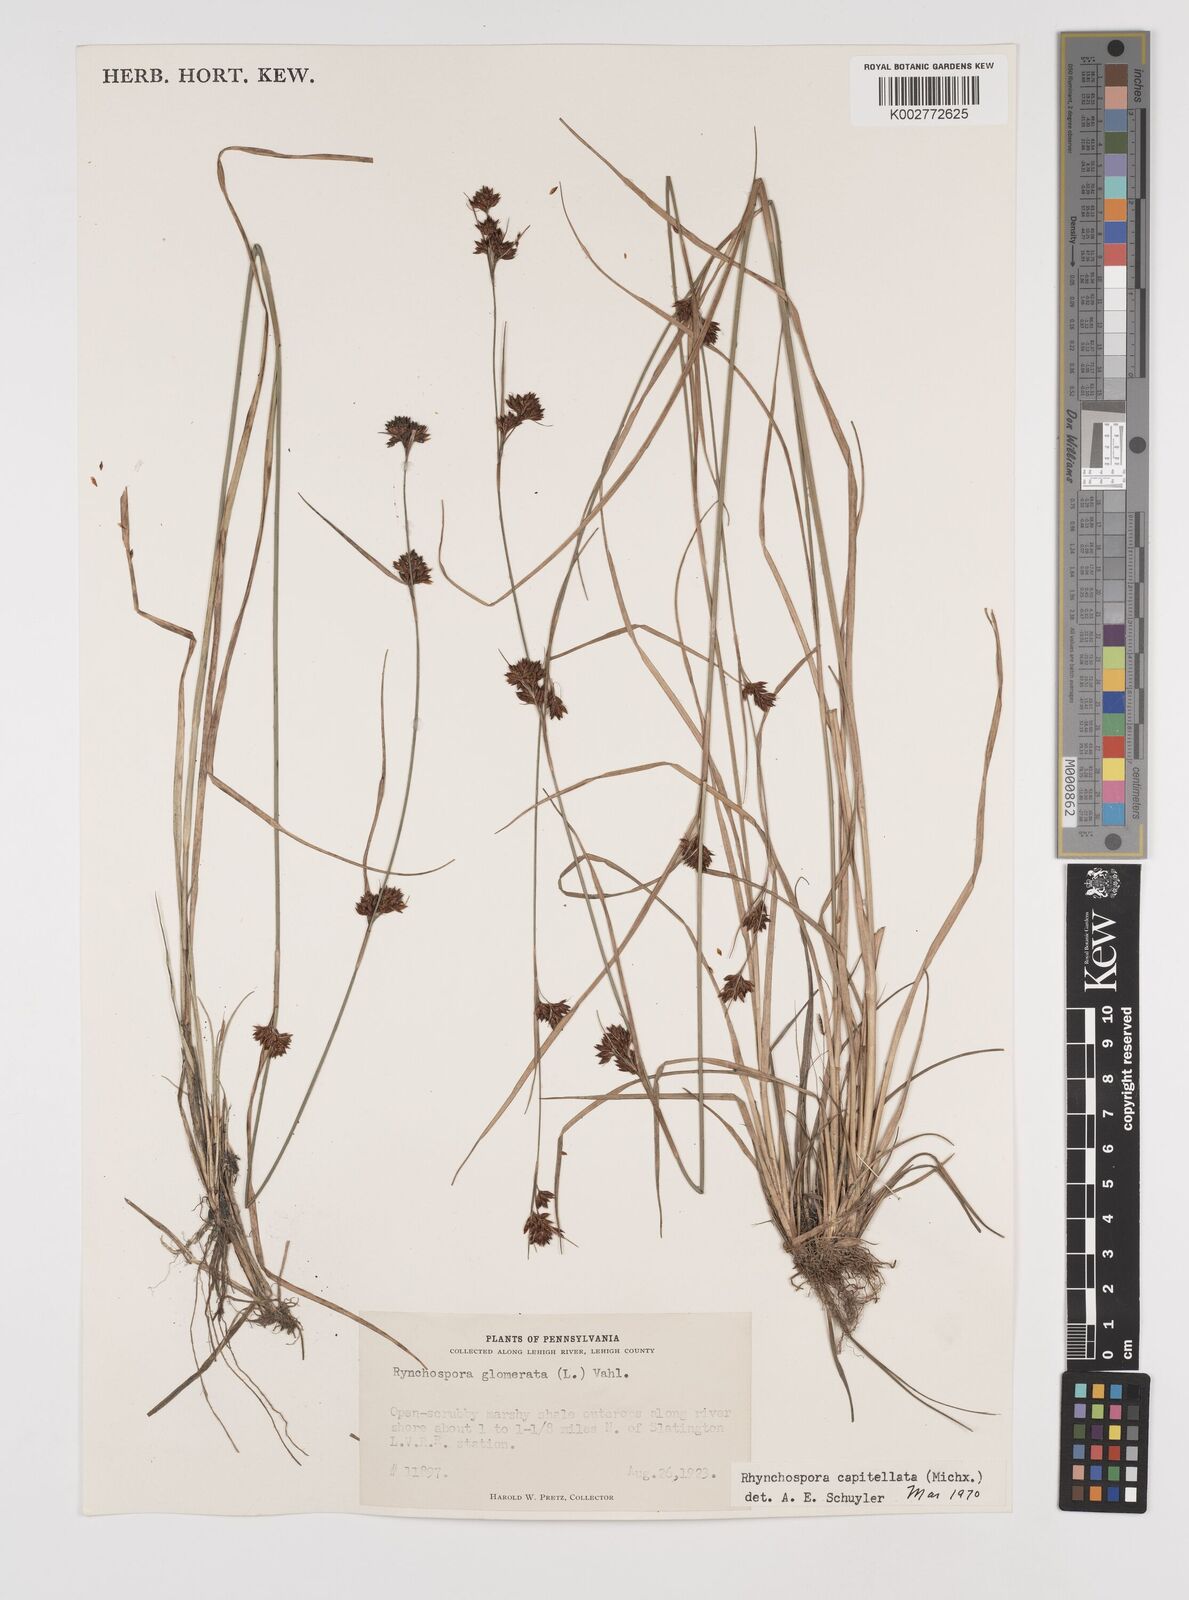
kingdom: Plantae
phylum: Tracheophyta
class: Liliopsida
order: Poales
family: Cyperaceae
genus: Rhynchospora
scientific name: Rhynchospora capitellata
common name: Brownish beaksedge
